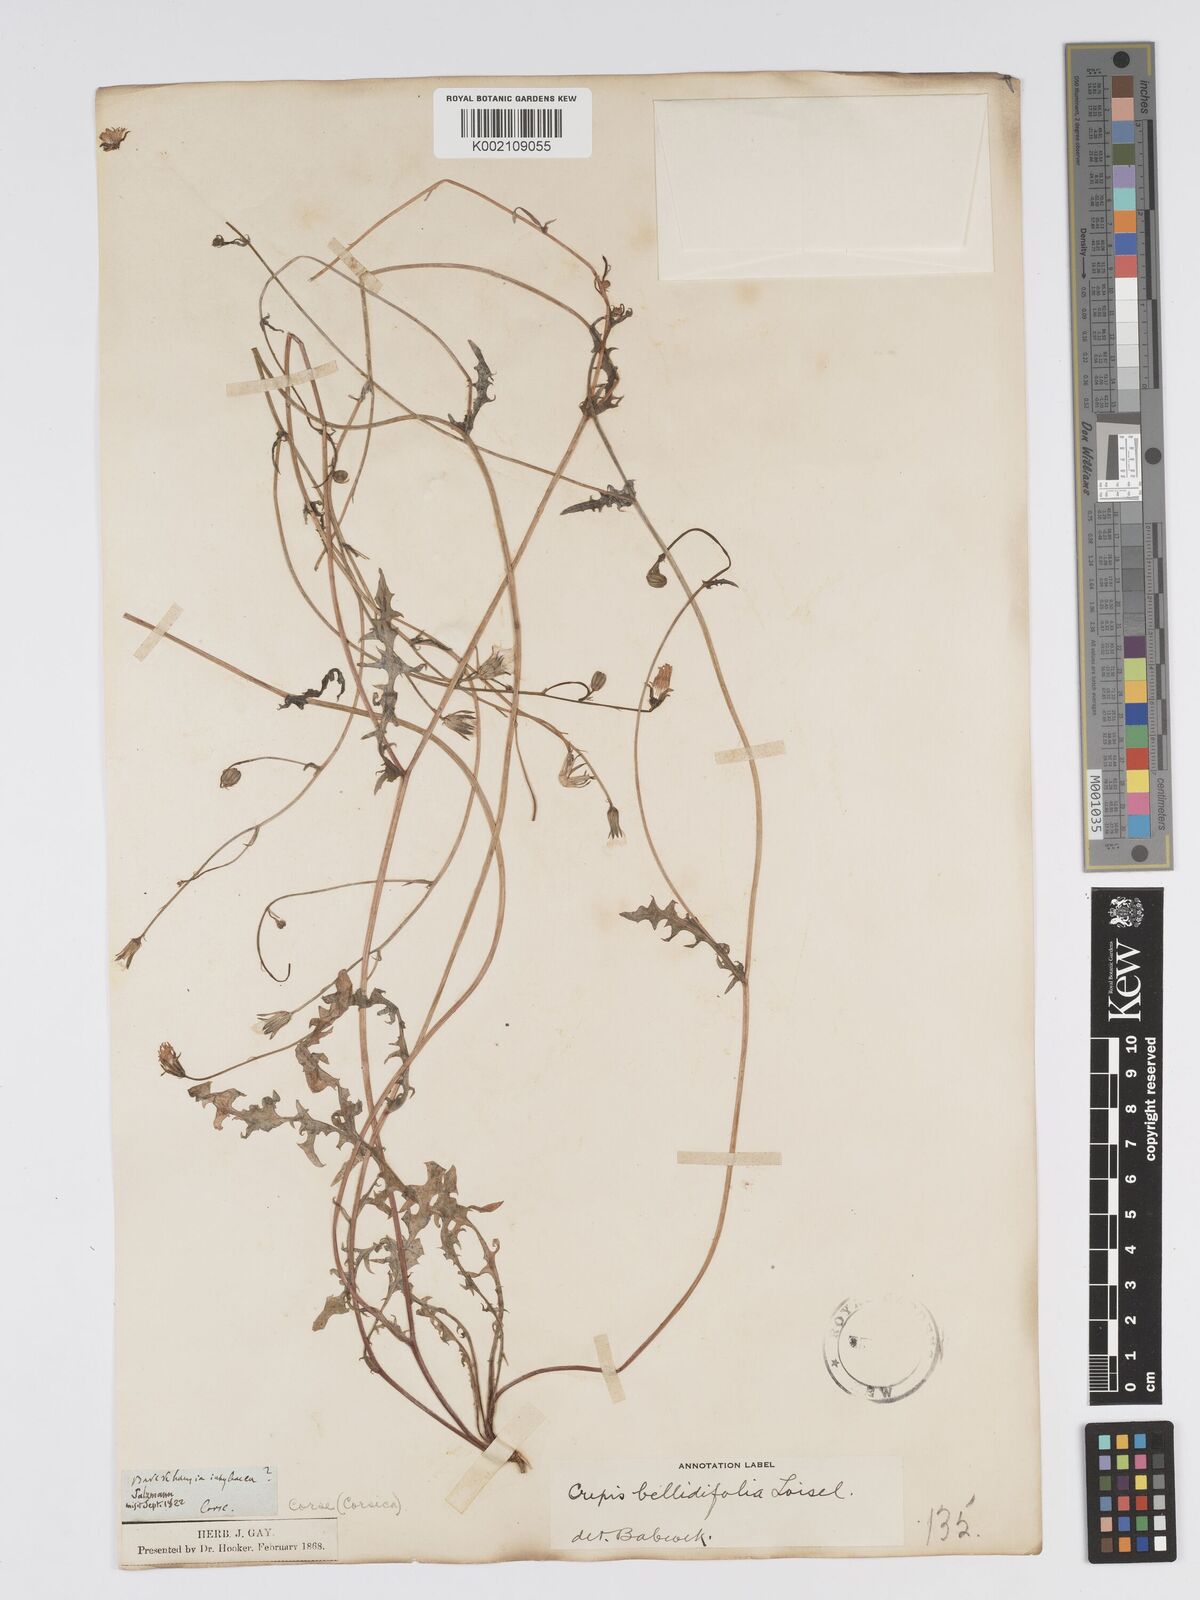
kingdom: Plantae
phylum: Tracheophyta
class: Magnoliopsida
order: Asterales
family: Asteraceae
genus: Crepis
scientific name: Crepis bellidifolia
